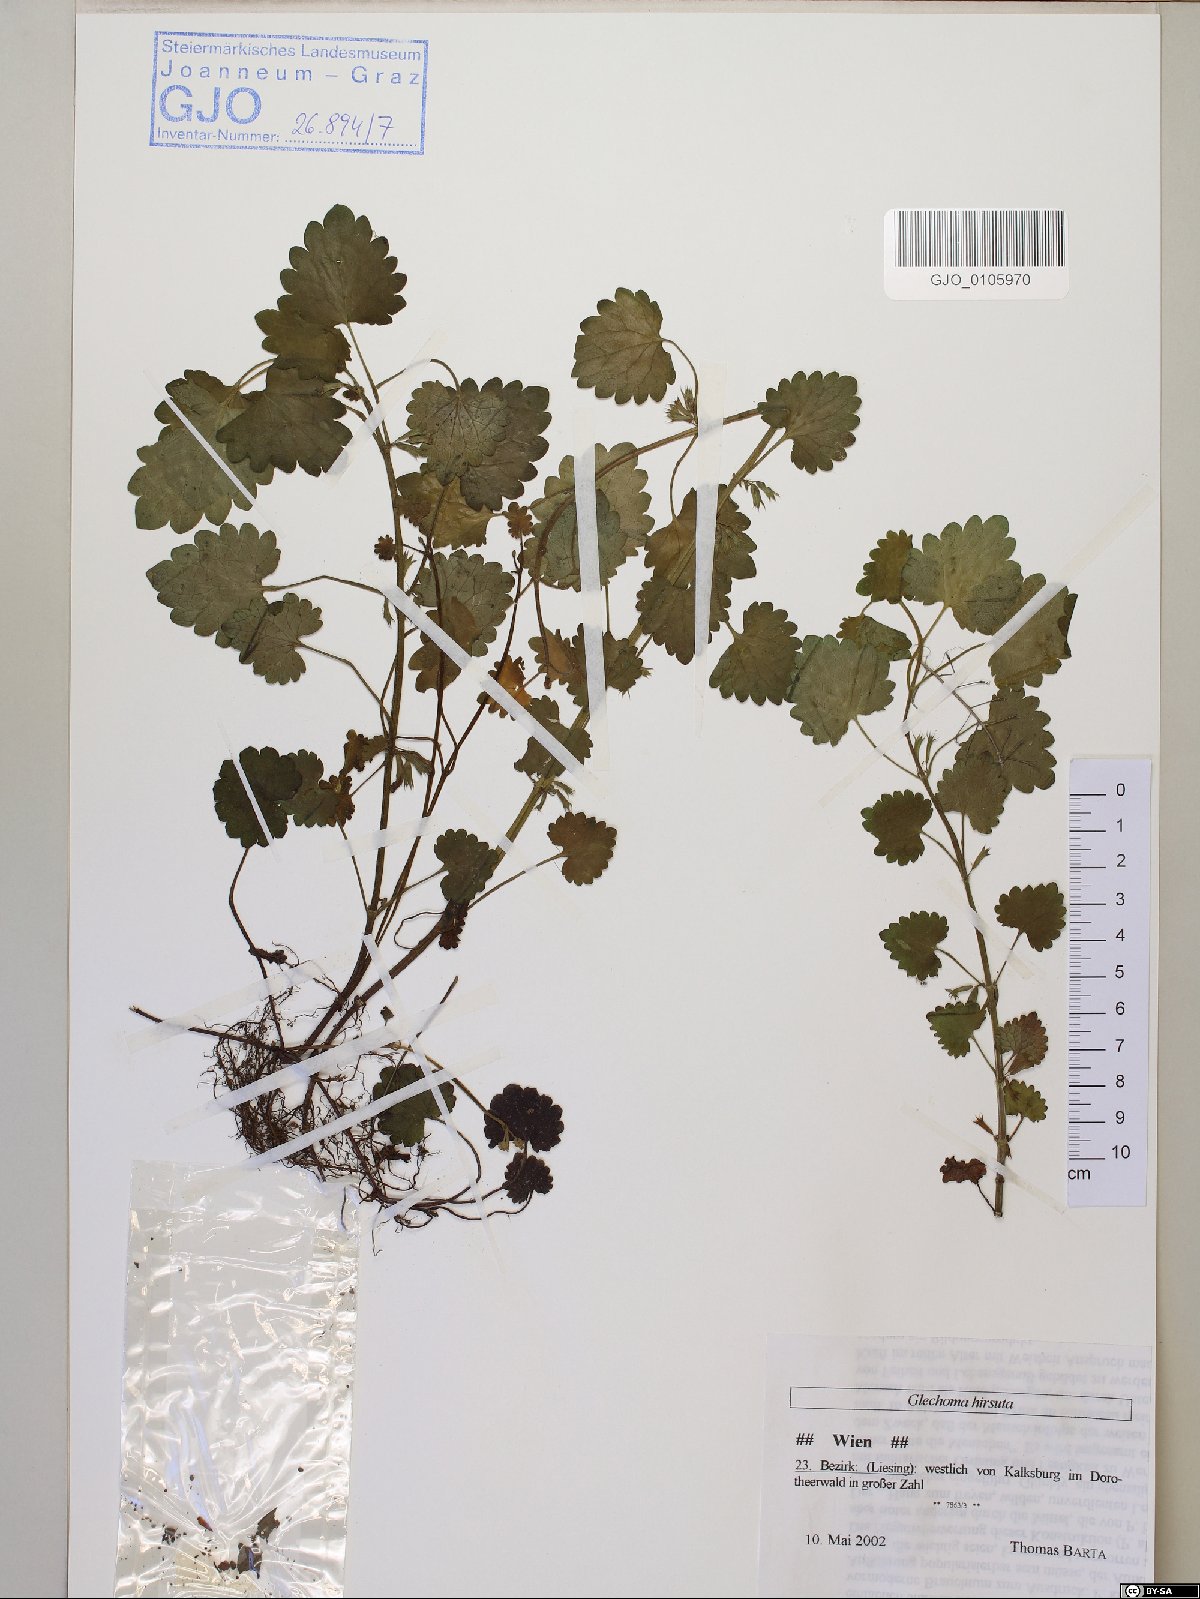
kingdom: Plantae
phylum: Tracheophyta
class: Magnoliopsida
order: Lamiales
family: Lamiaceae
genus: Glechoma
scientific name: Glechoma hirsuta
